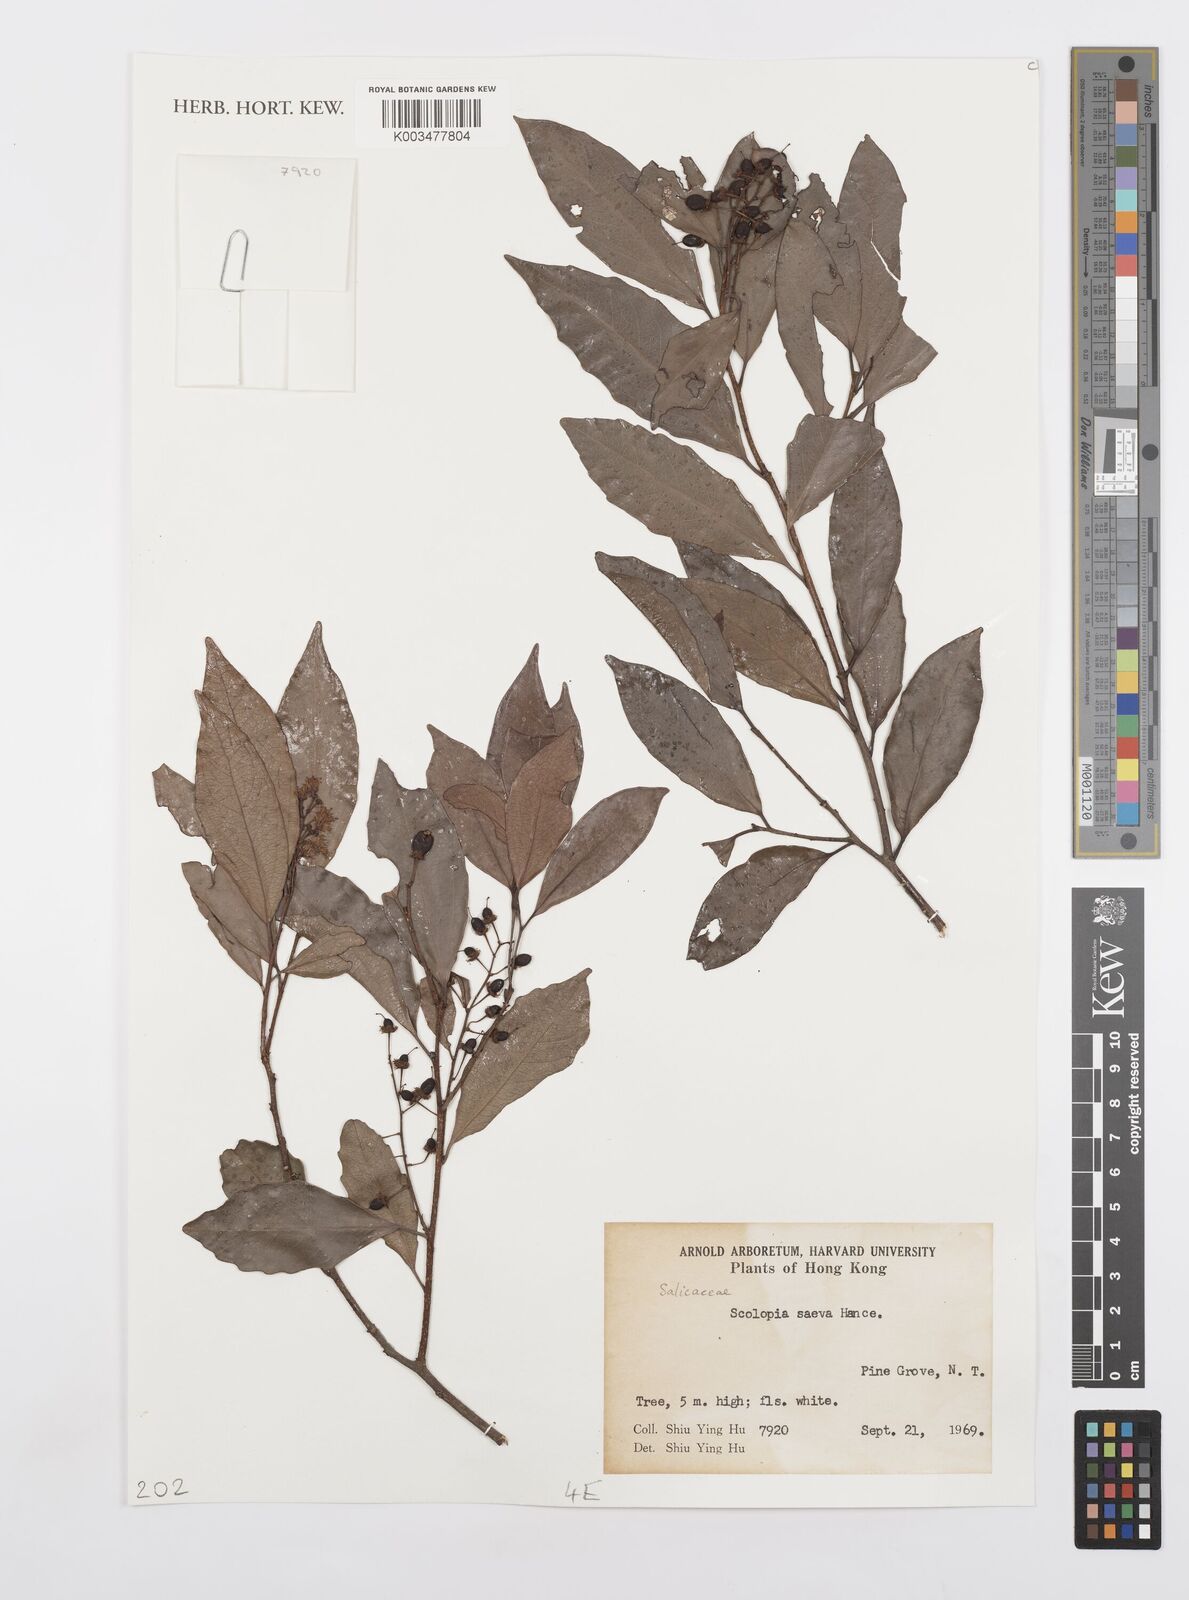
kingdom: Plantae
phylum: Tracheophyta
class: Magnoliopsida
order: Malpighiales
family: Salicaceae
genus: Scolopia
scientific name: Scolopia saeva
